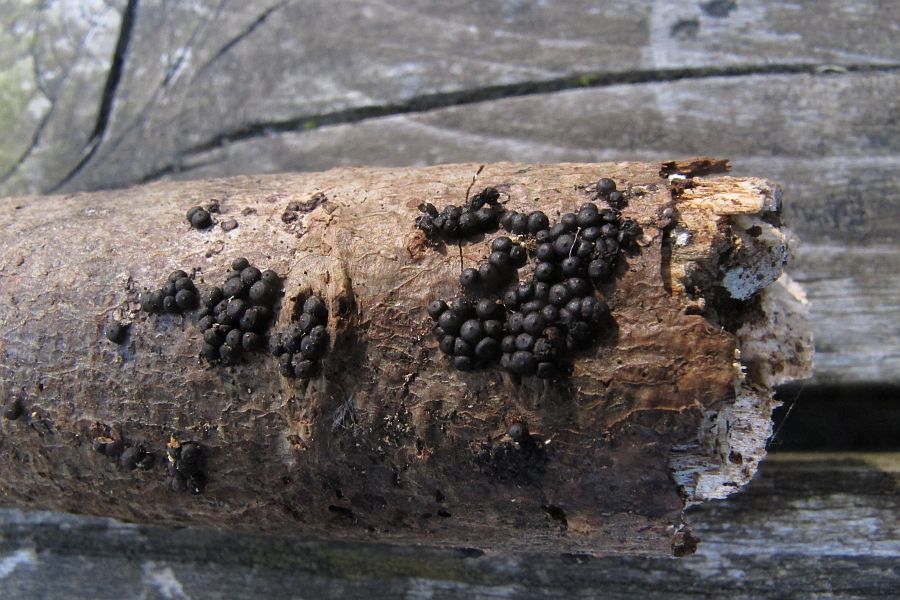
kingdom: Fungi
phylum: Ascomycota
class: Sordariomycetes
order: Xylariales
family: Xylariaceae
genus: Rosellinia
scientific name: Rosellinia marcucciana
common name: måtteløs kulkaviar
